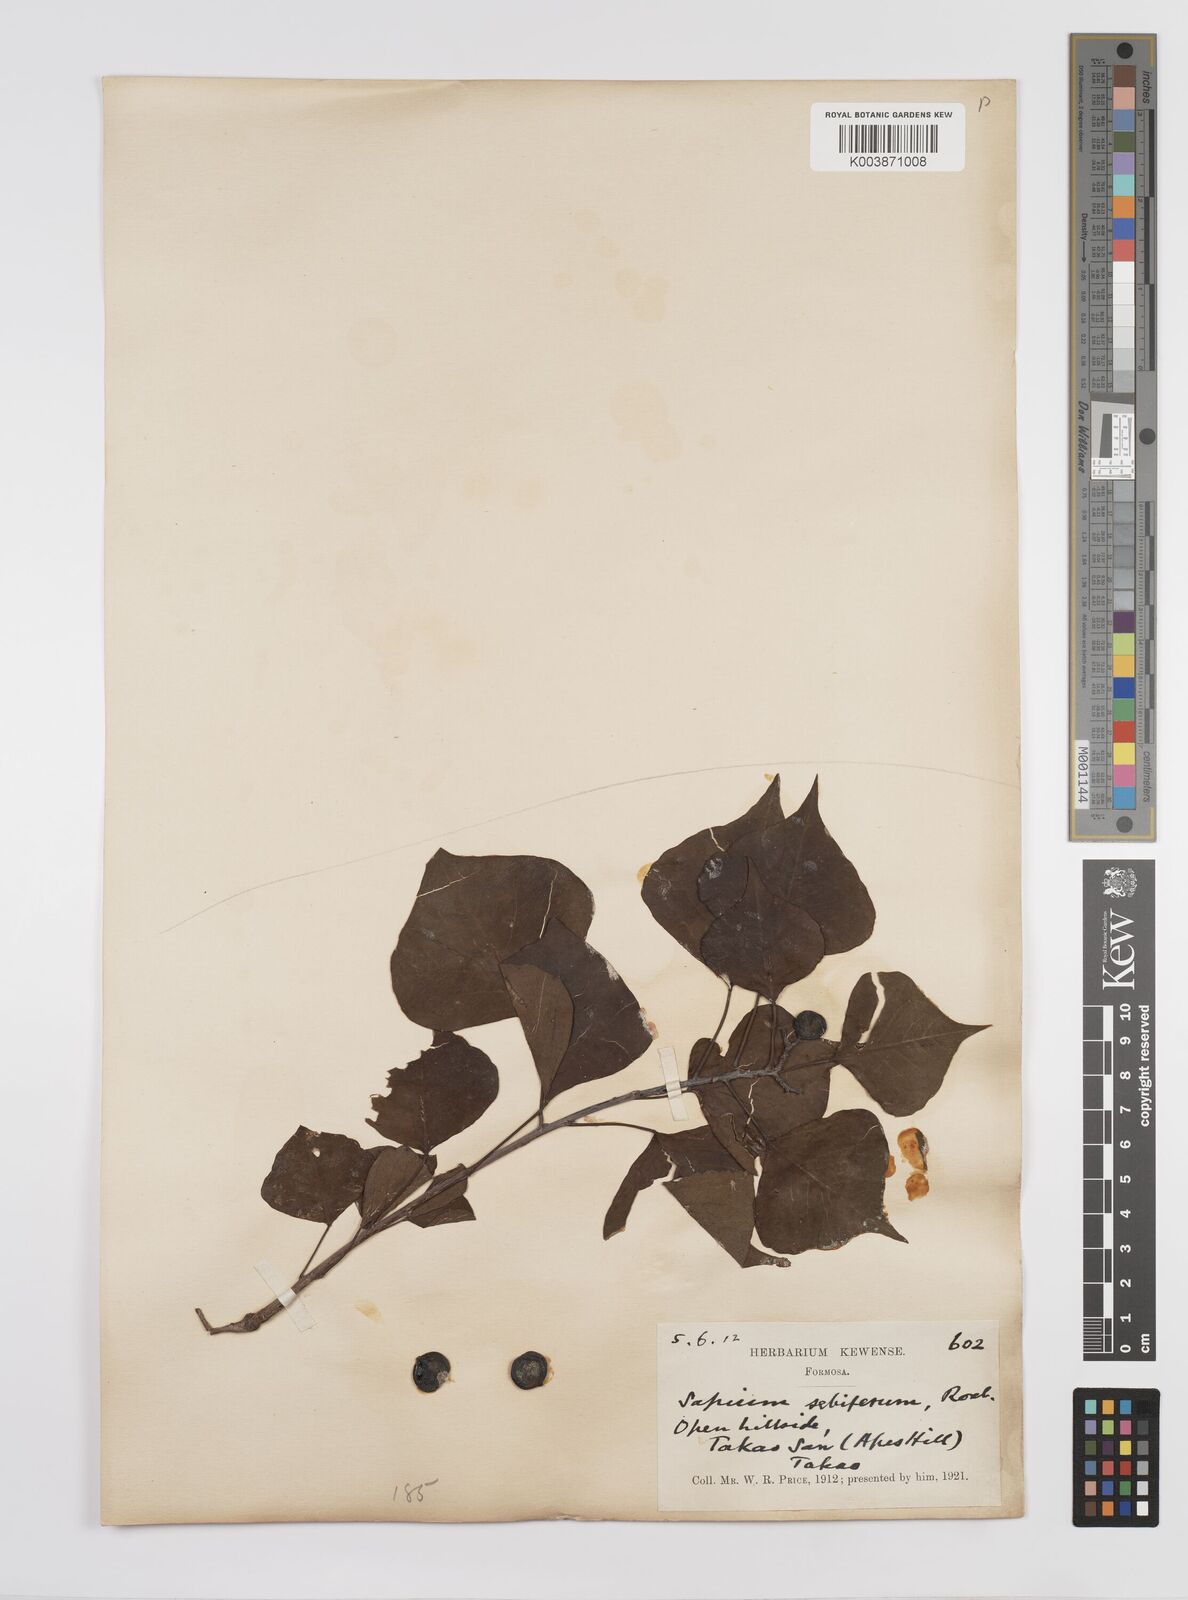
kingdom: Plantae
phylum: Tracheophyta
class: Magnoliopsida
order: Malpighiales
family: Euphorbiaceae
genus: Triadica
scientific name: Triadica sebifera
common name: Chinese tallow
